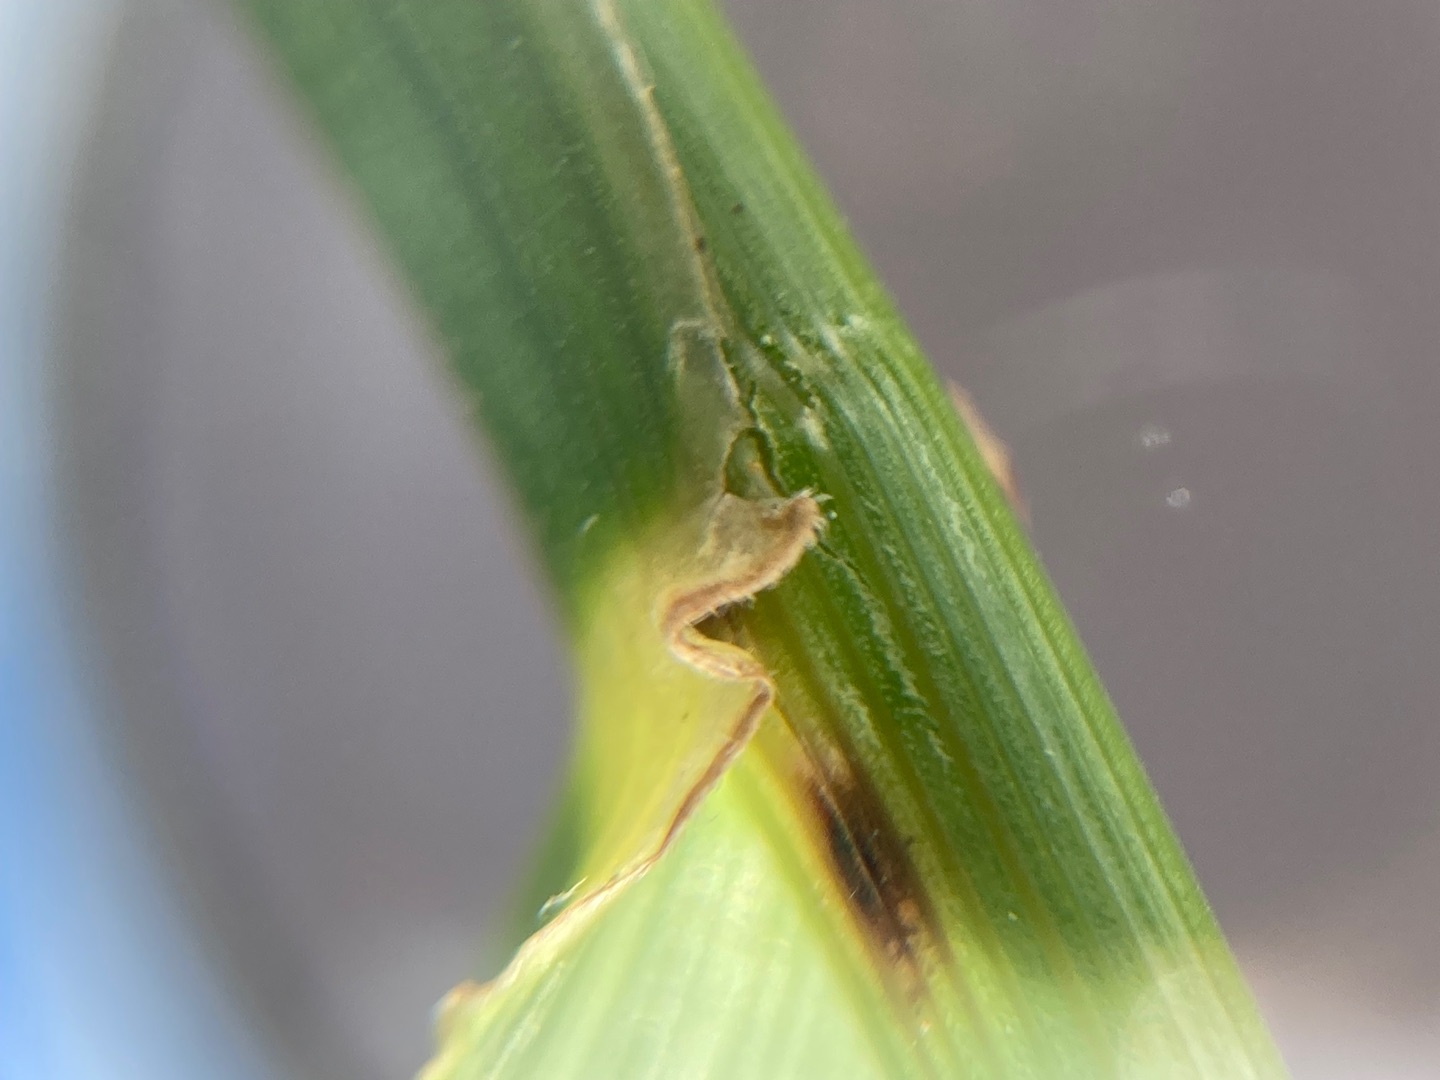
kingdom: Plantae
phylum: Tracheophyta
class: Liliopsida
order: Poales
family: Poaceae
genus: Lolium
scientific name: Lolium arundinaceum
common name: Strand-svingel
